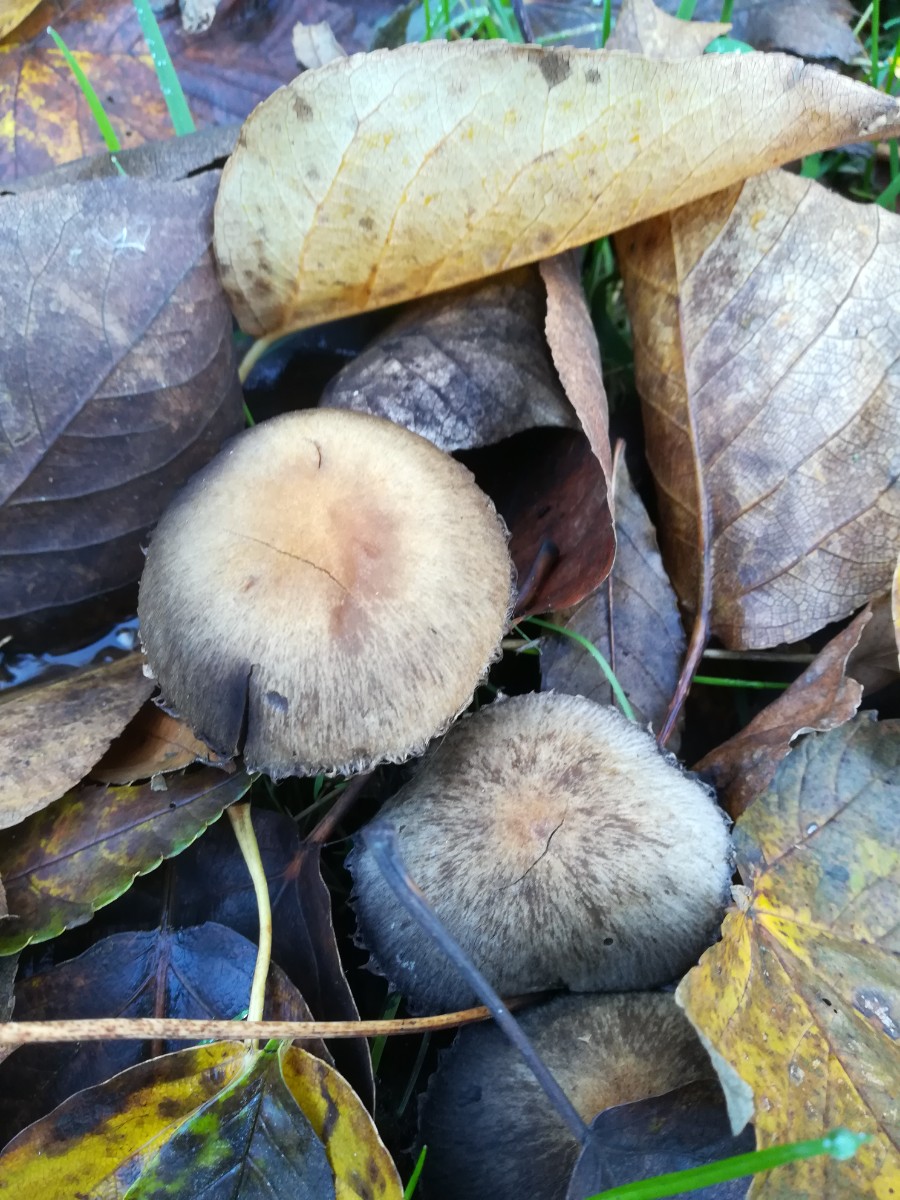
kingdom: Fungi
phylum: Basidiomycota
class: Agaricomycetes
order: Agaricales
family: Psathyrellaceae
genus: Lacrymaria
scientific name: Lacrymaria lacrymabunda
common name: grædende mørkhat
